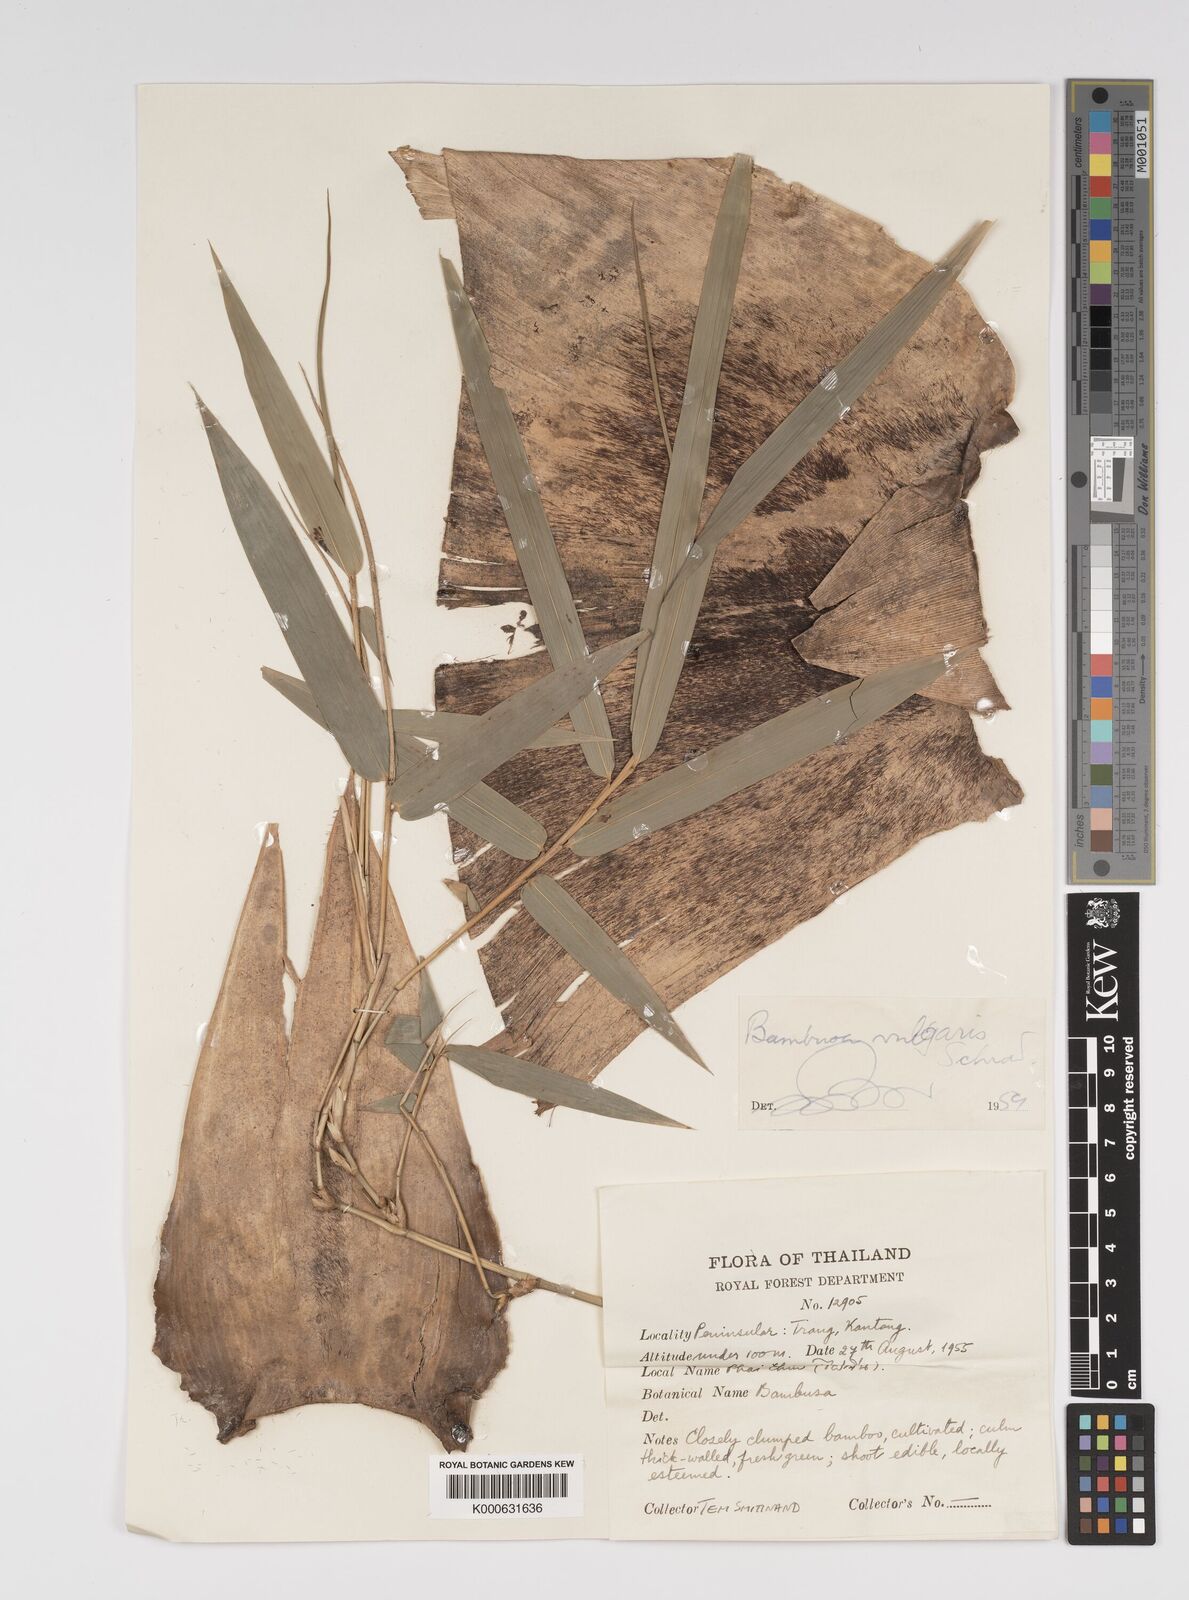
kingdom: Plantae
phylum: Tracheophyta
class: Liliopsida
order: Poales
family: Poaceae
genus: Bambusa
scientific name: Bambusa
